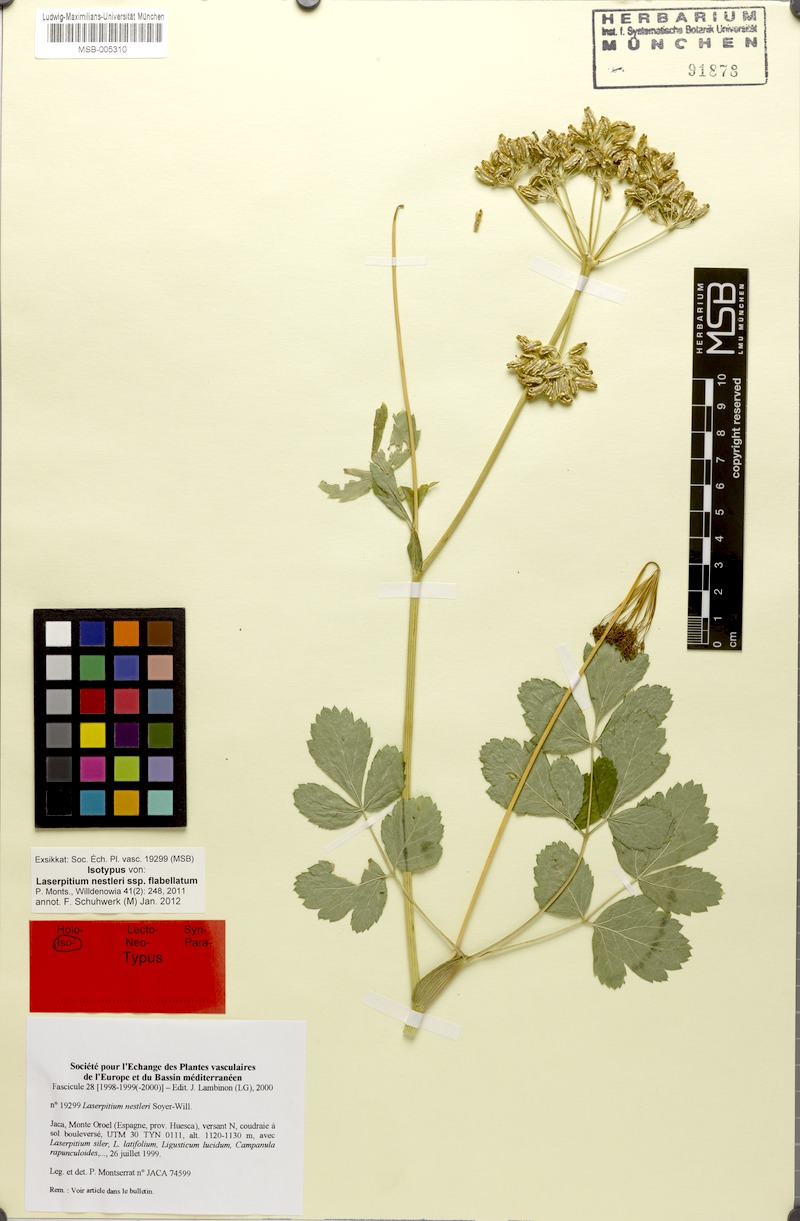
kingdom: Plantae
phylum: Tracheophyta
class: Magnoliopsida
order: Apiales
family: Apiaceae
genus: Thapsia
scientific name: Thapsia nestleri
